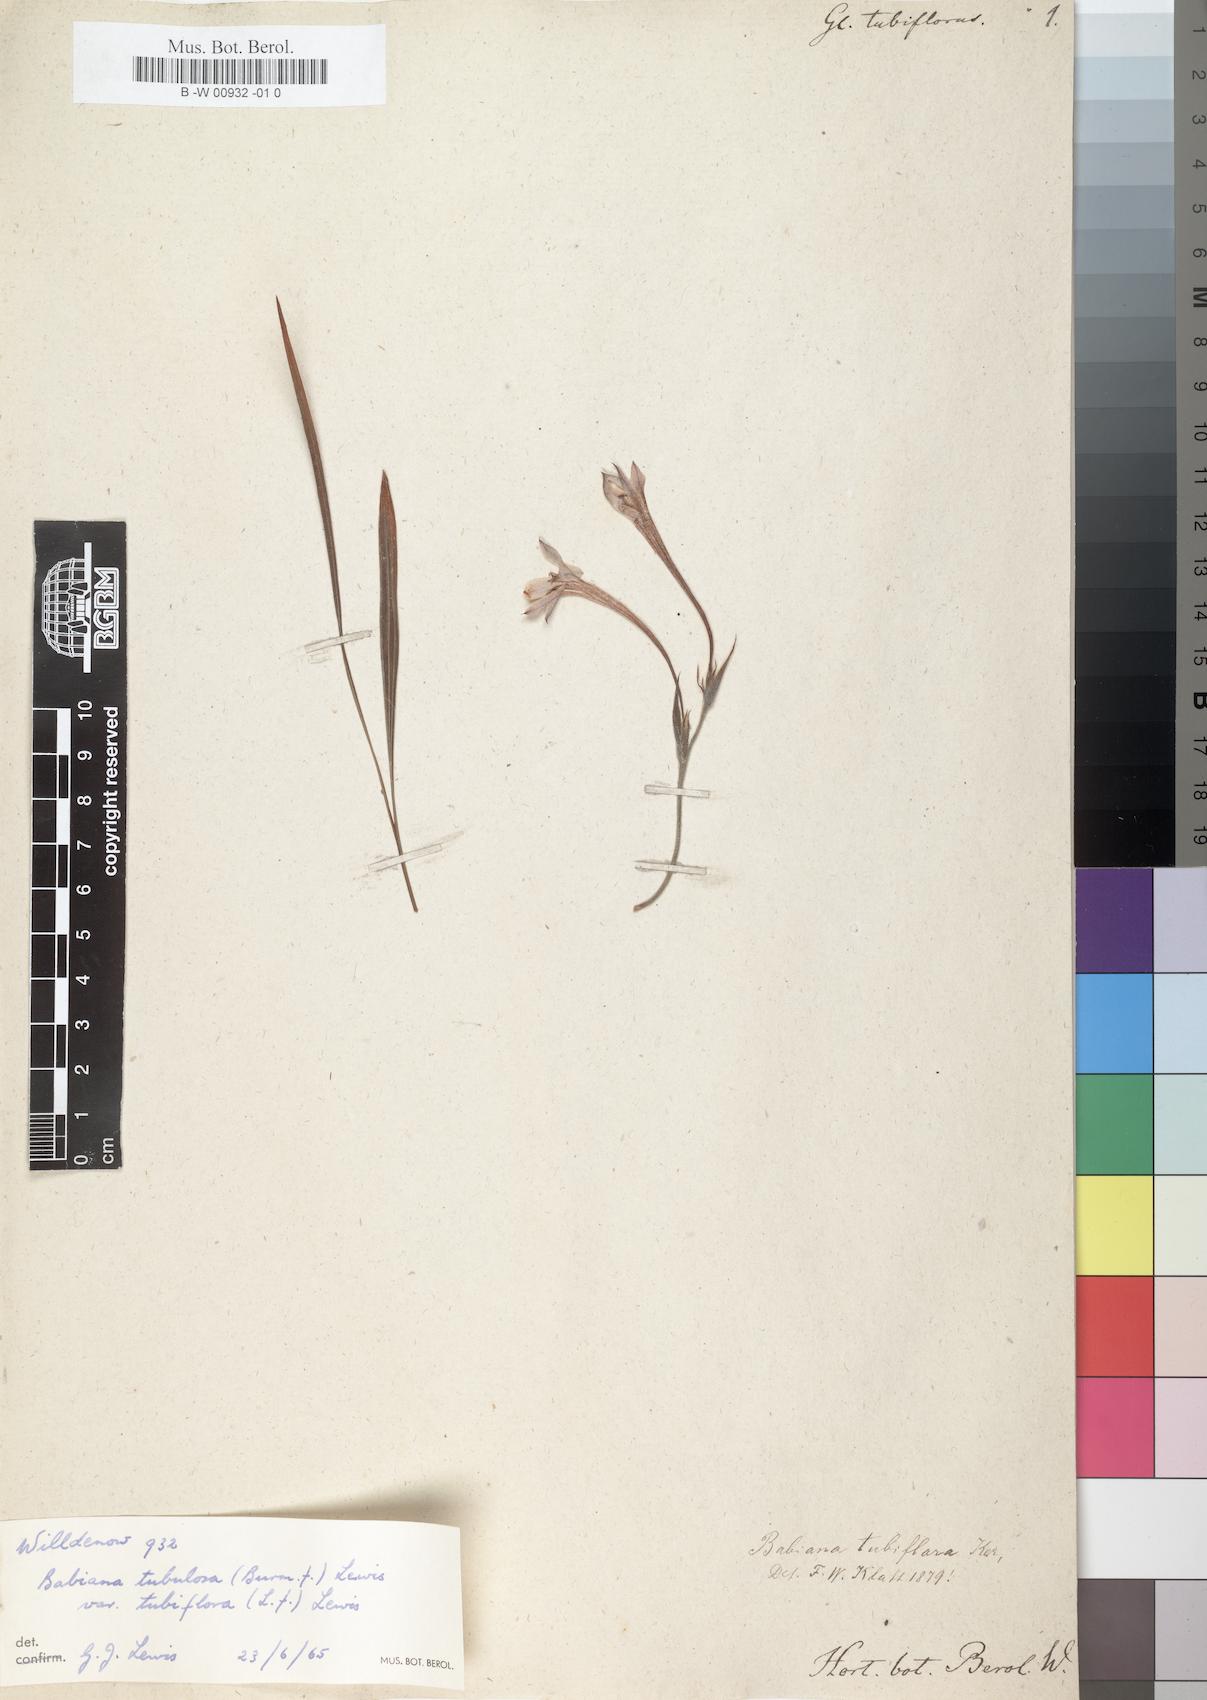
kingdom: Plantae
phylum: Tracheophyta
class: Liliopsida
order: Asparagales
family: Iridaceae
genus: Babiana
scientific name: Babiana tubiflora
